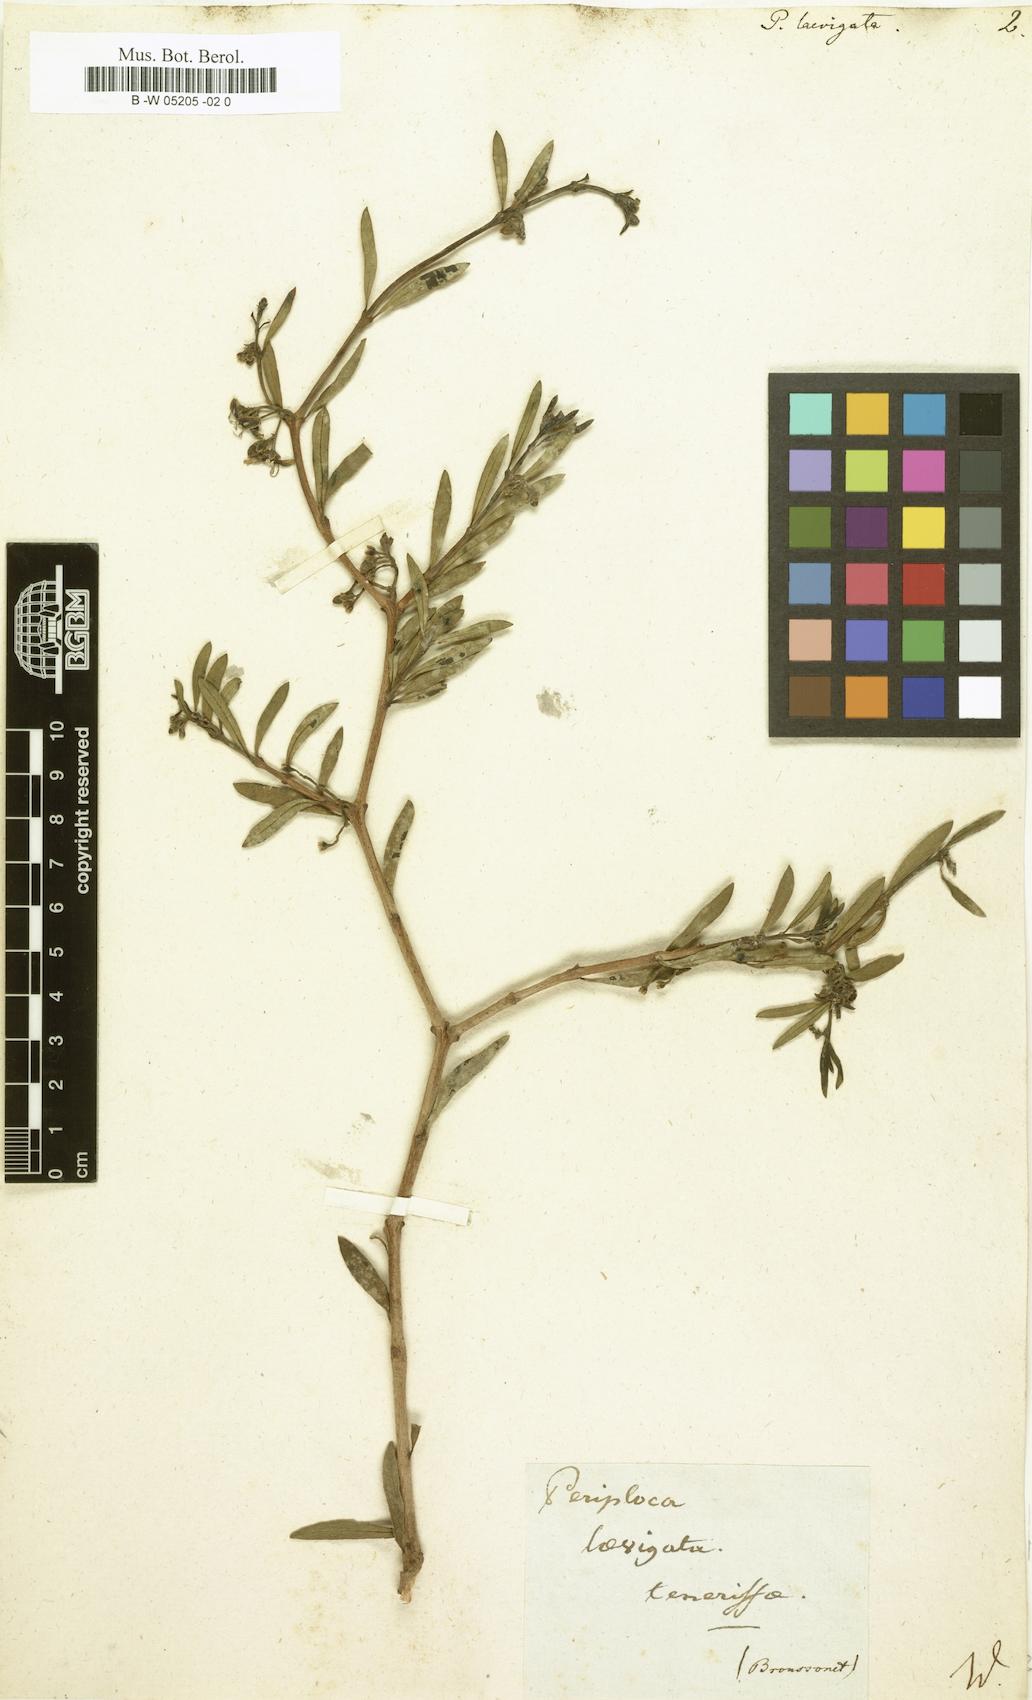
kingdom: Plantae
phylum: Tracheophyta
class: Magnoliopsida
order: Gentianales
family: Apocynaceae
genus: Periploca
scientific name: Periploca laevigata
